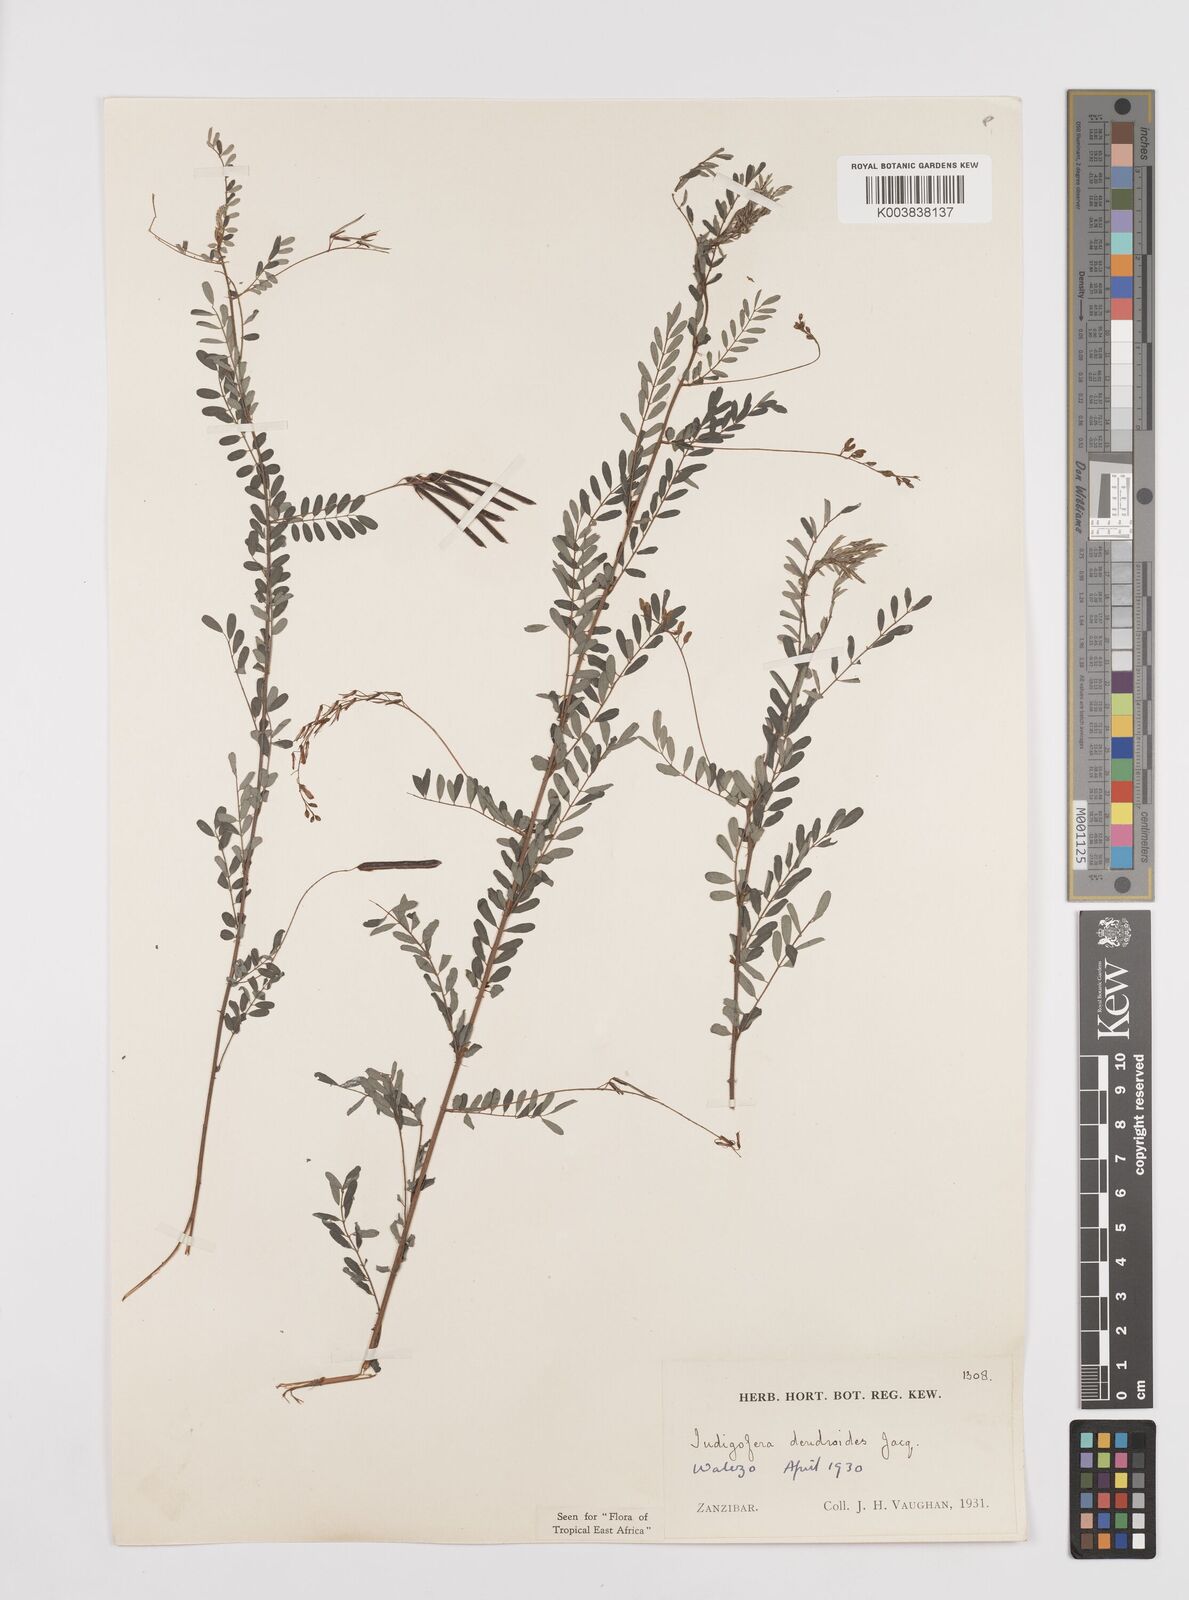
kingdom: Plantae
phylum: Tracheophyta
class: Magnoliopsida
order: Fabales
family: Fabaceae
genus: Indigofera
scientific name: Indigofera dendroides
